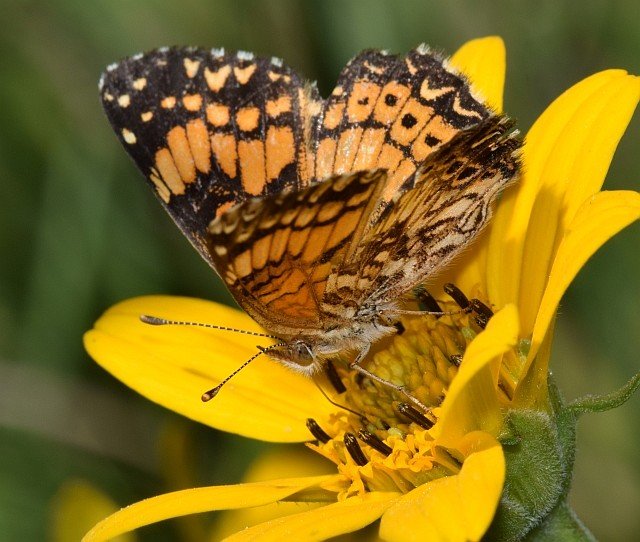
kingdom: Animalia
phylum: Arthropoda
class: Insecta
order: Lepidoptera
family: Nymphalidae
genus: Chlosyne
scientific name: Chlosyne gorgone
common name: Gorgone Checkerspot
